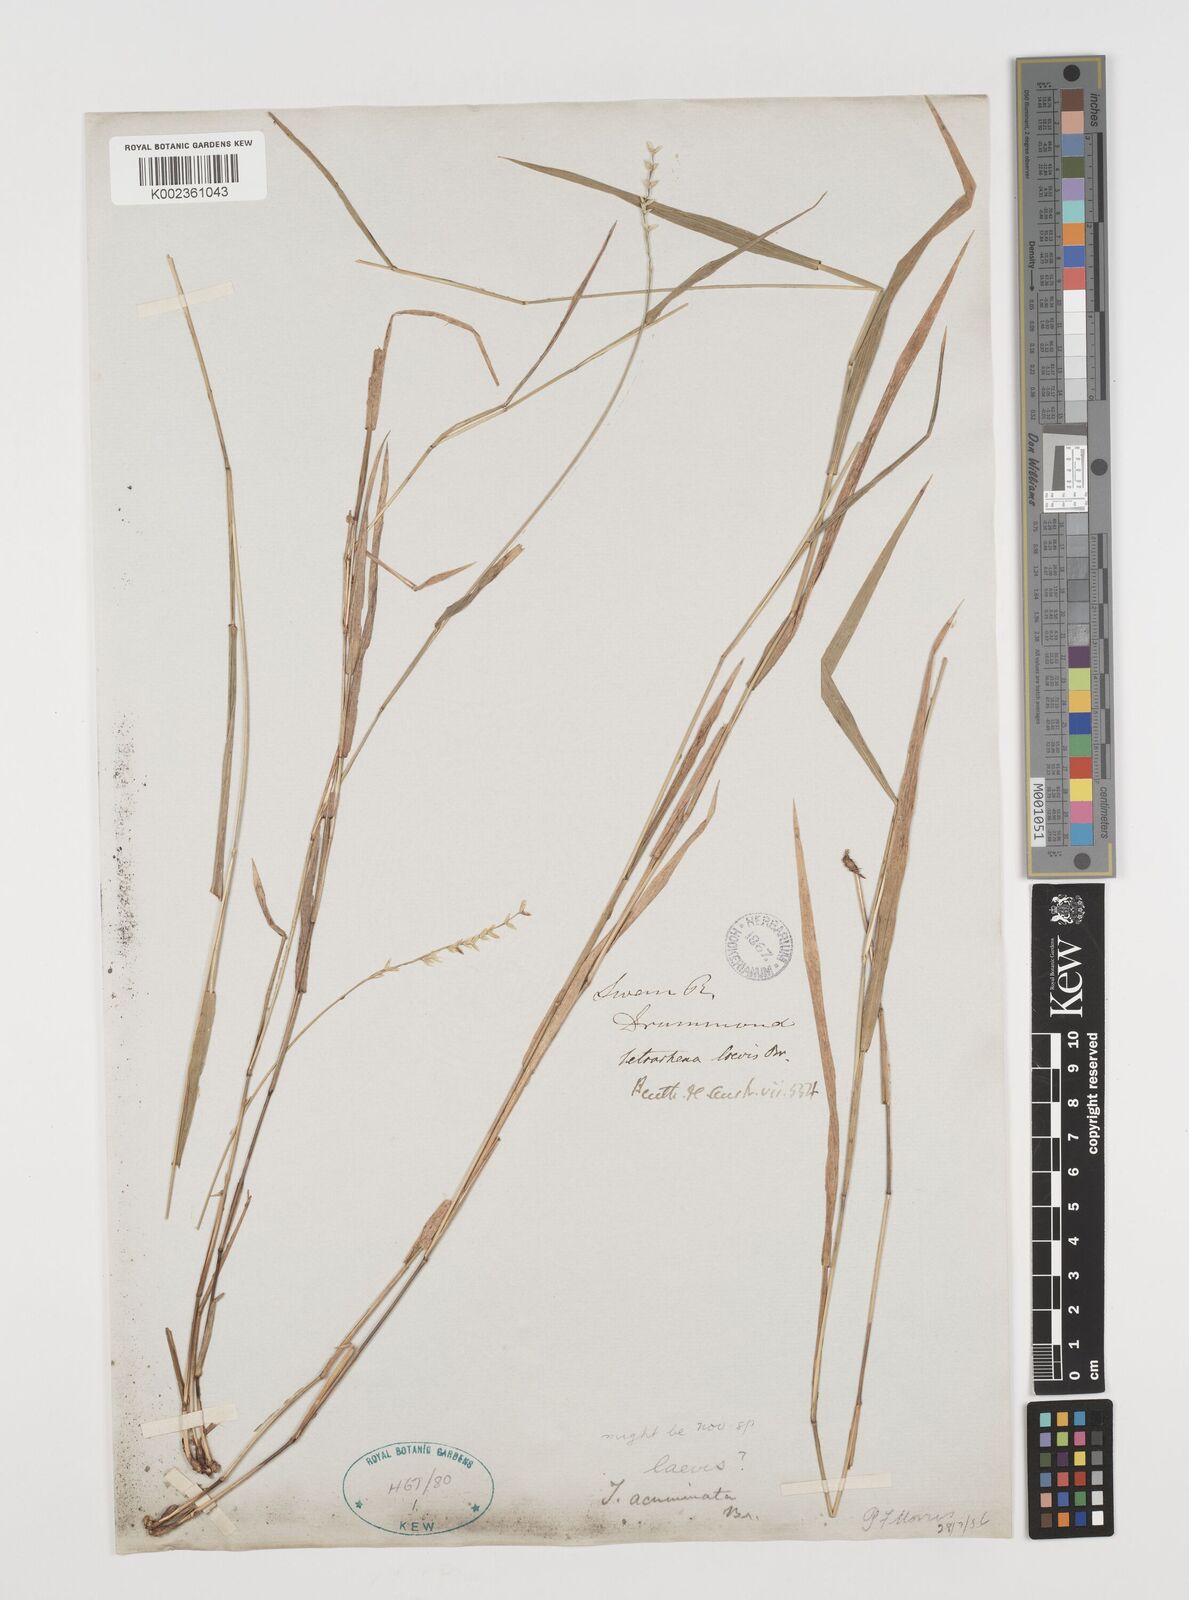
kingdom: Plantae
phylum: Tracheophyta
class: Liliopsida
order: Poales
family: Poaceae
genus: Tetrarrhena
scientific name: Tetrarrhena acuminata
